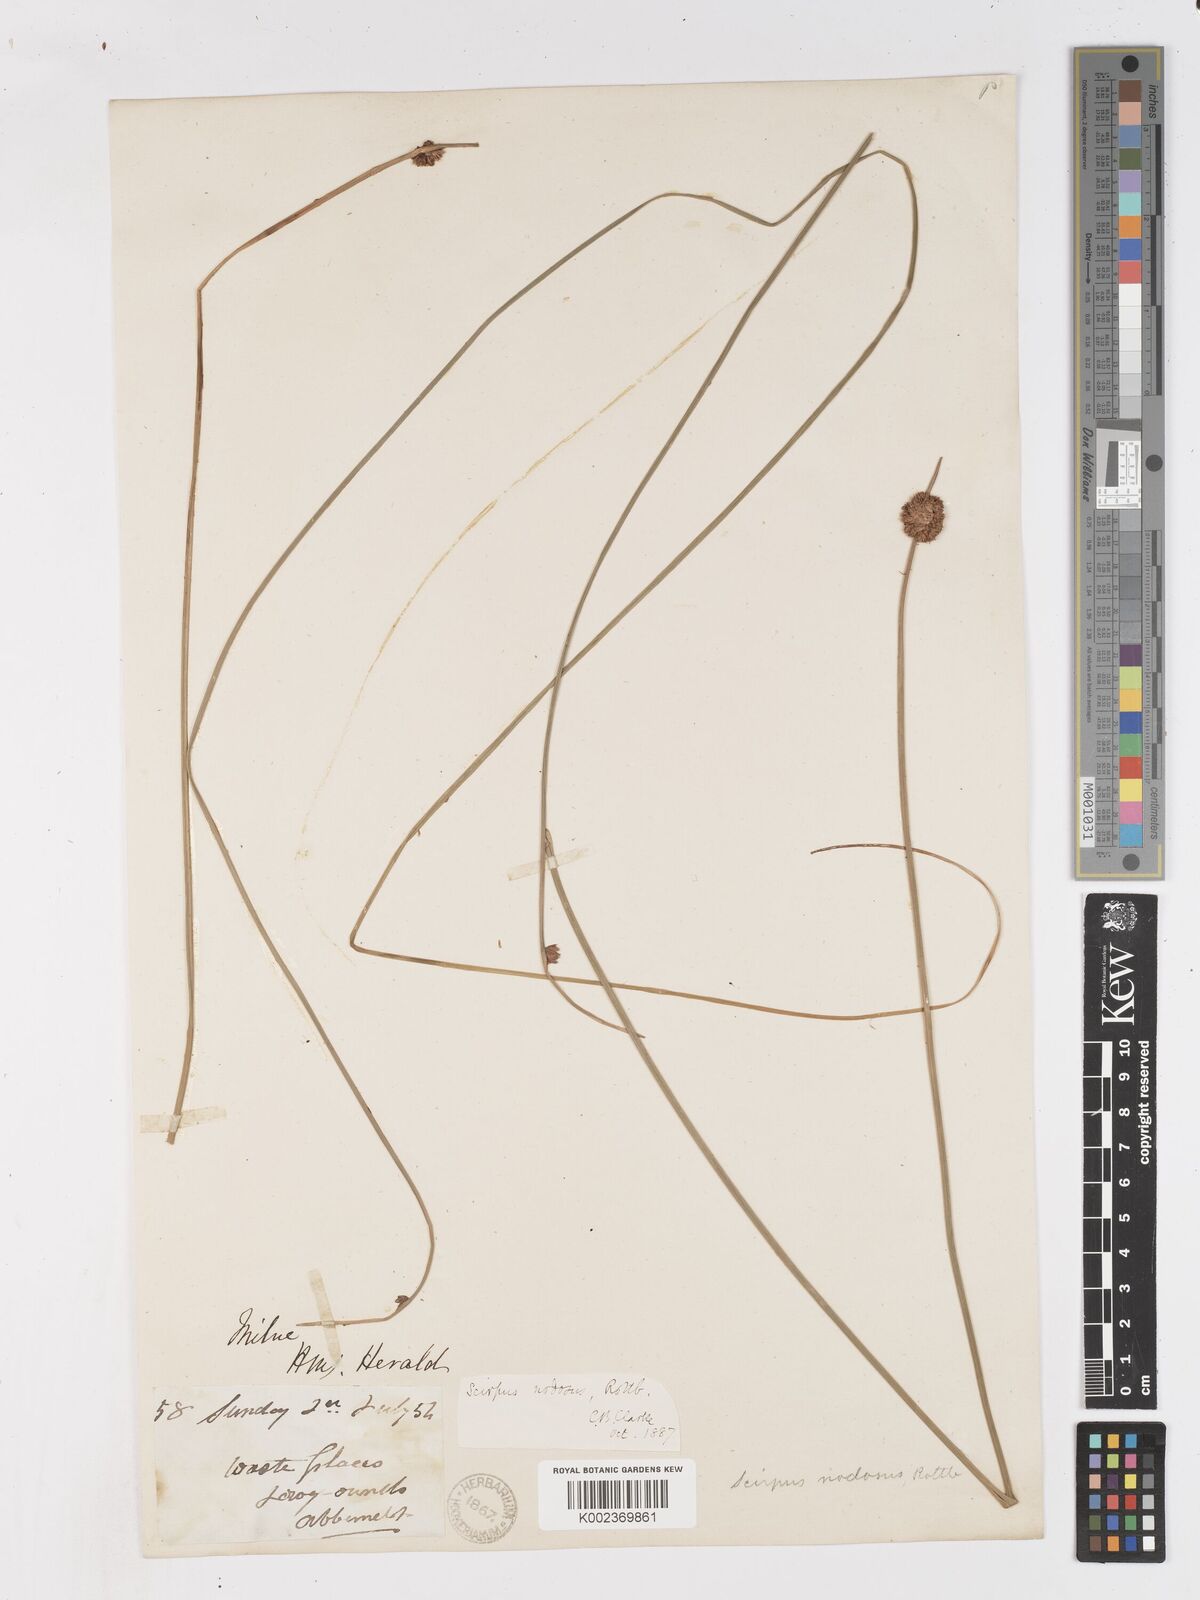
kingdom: Plantae
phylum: Tracheophyta
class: Liliopsida
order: Poales
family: Cyperaceae
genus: Ficinia
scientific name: Ficinia nodosa
